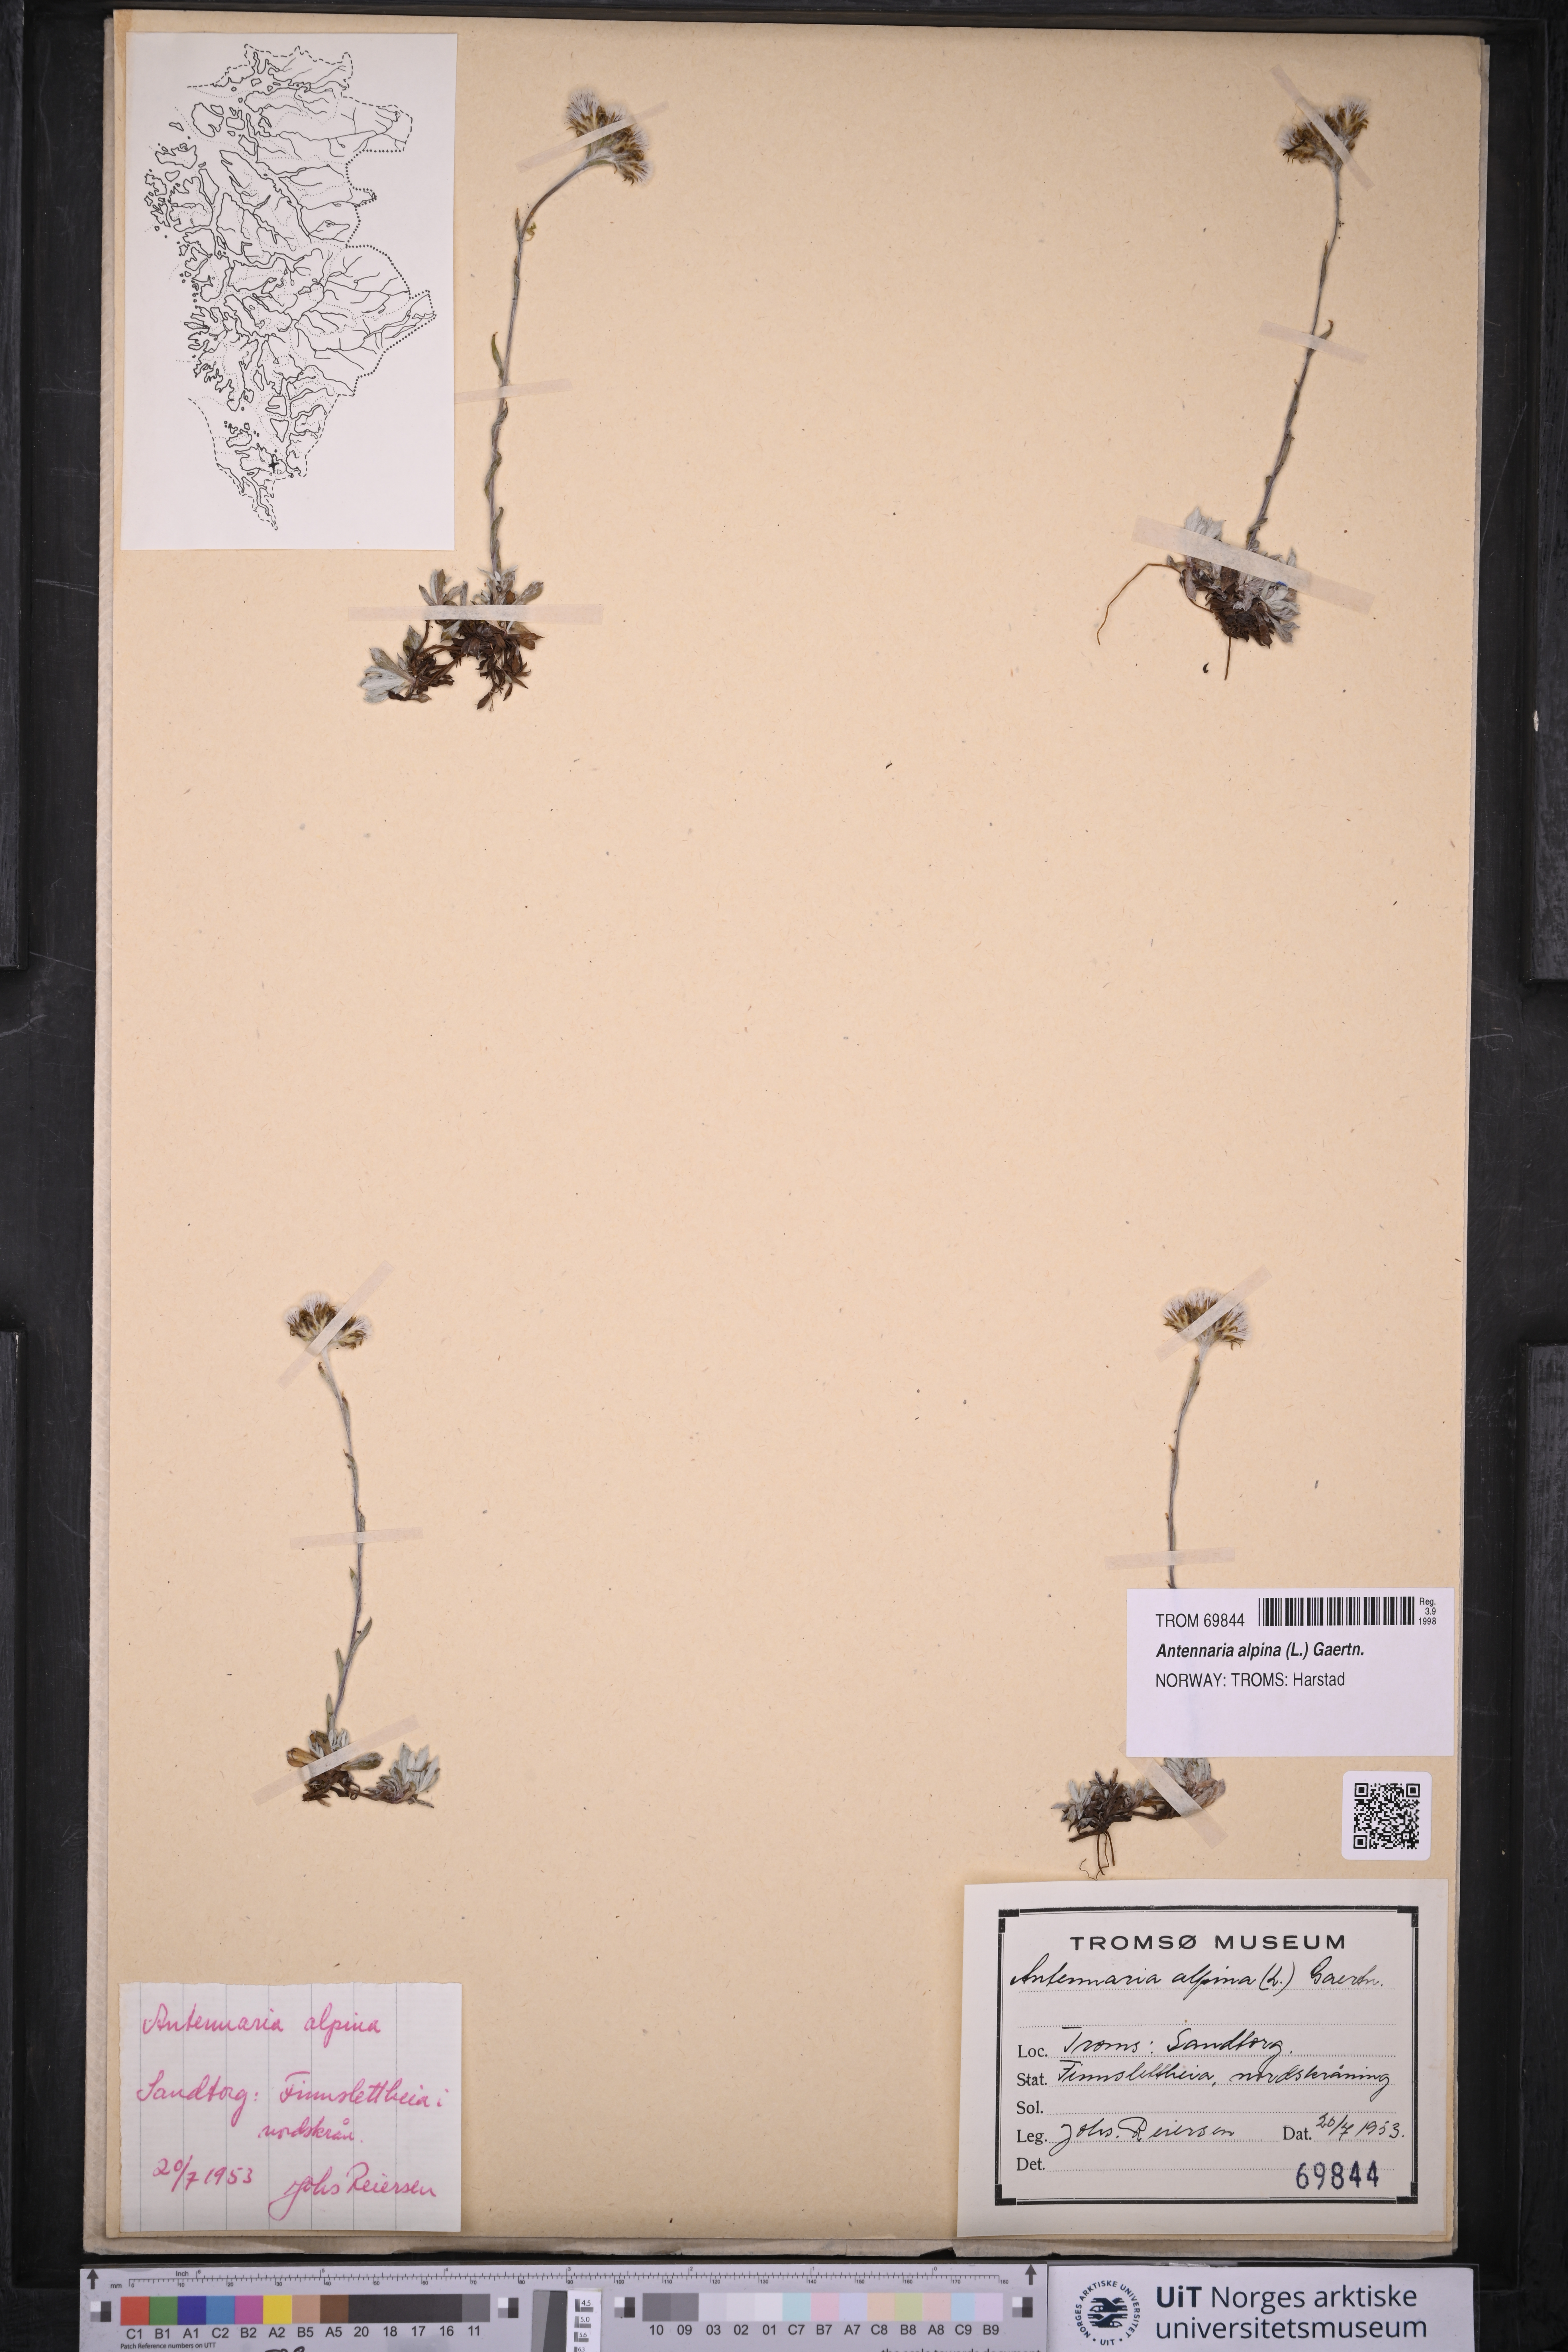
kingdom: Plantae
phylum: Tracheophyta
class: Magnoliopsida
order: Asterales
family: Asteraceae
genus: Antennaria
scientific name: Antennaria alpina
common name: Alpine pussytoes
